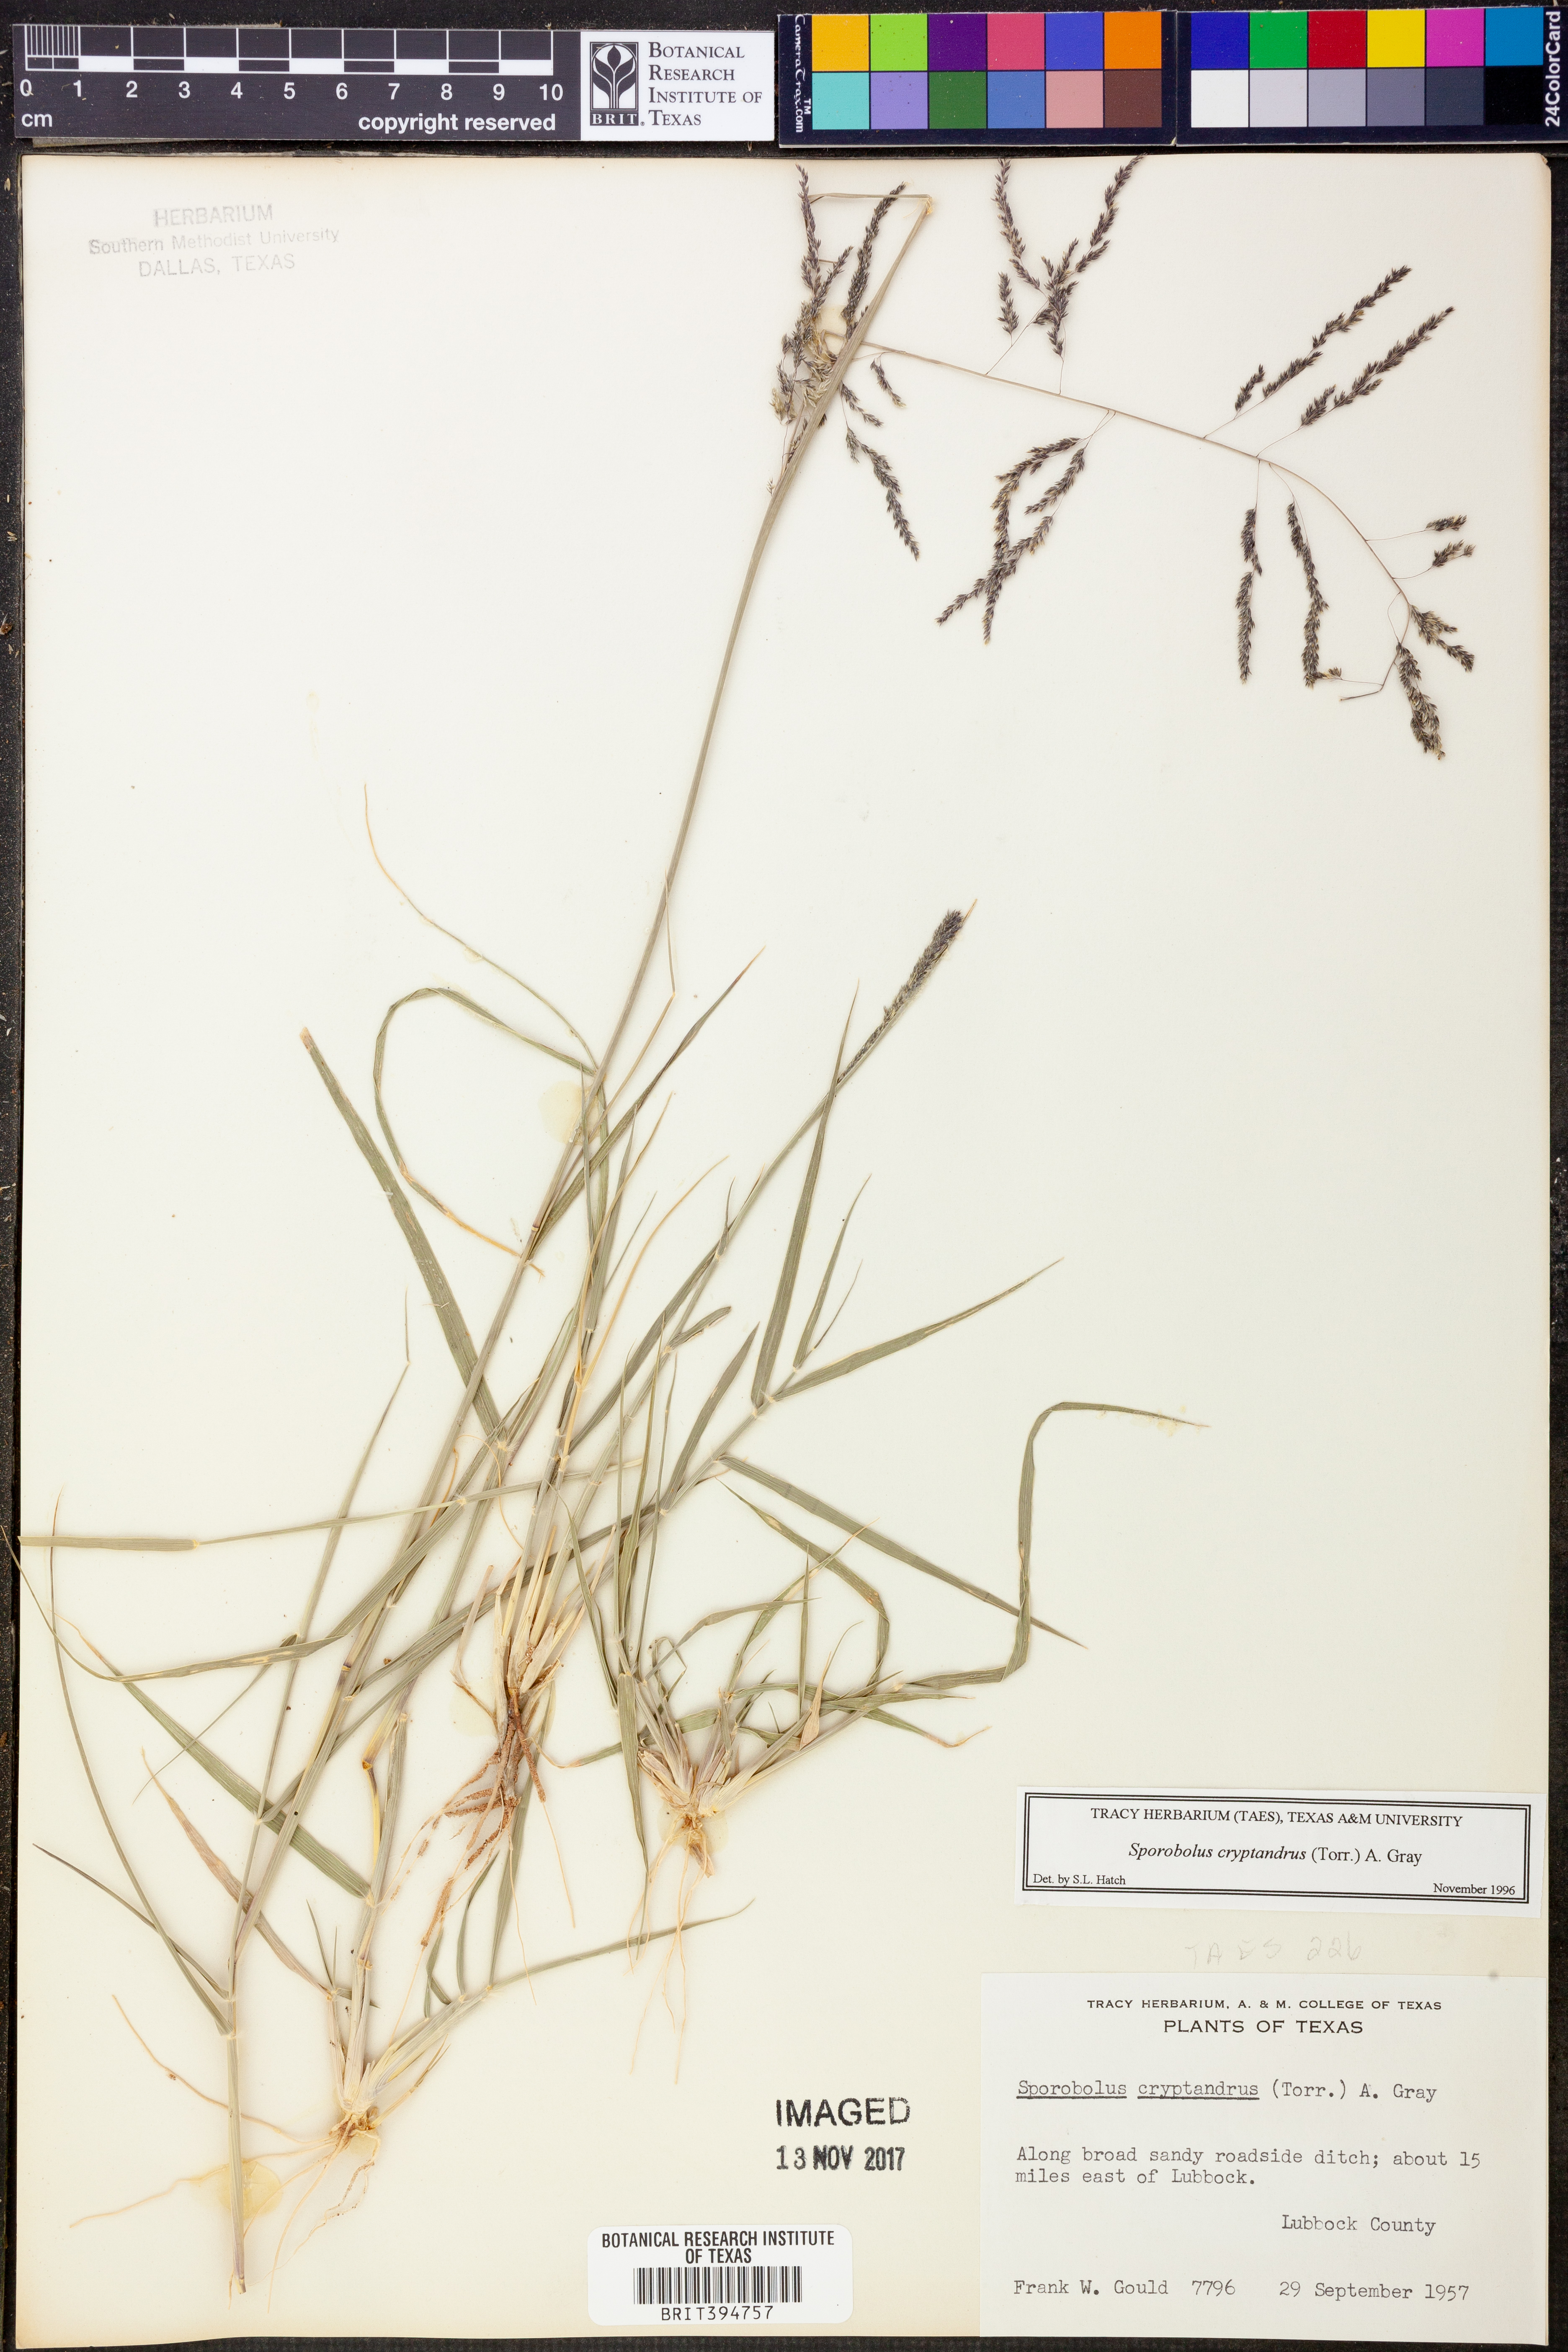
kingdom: Plantae
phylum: Tracheophyta
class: Liliopsida
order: Poales
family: Poaceae
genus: Sporobolus
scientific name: Sporobolus cryptandrus
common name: Sand dropseed
